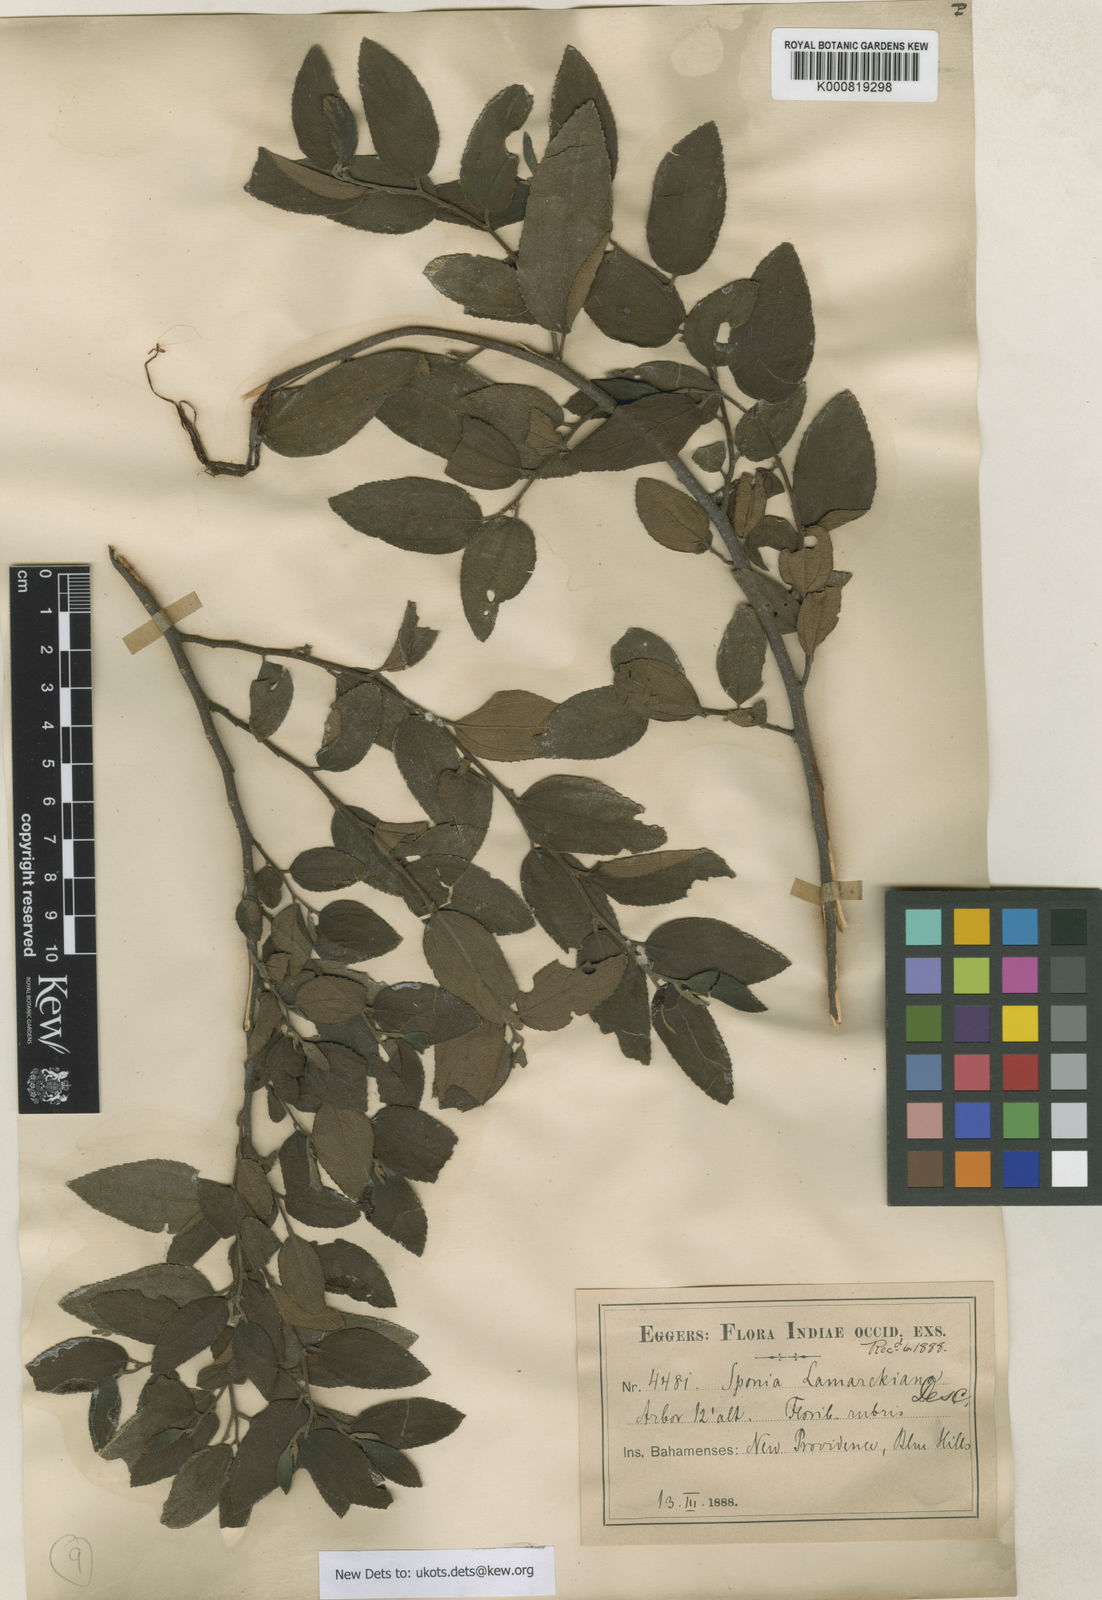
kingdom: Plantae
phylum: Tracheophyta
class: Magnoliopsida
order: Rosales
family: Cannabaceae
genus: Trema
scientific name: Trema lamarckianum
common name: Lamarck's trema
